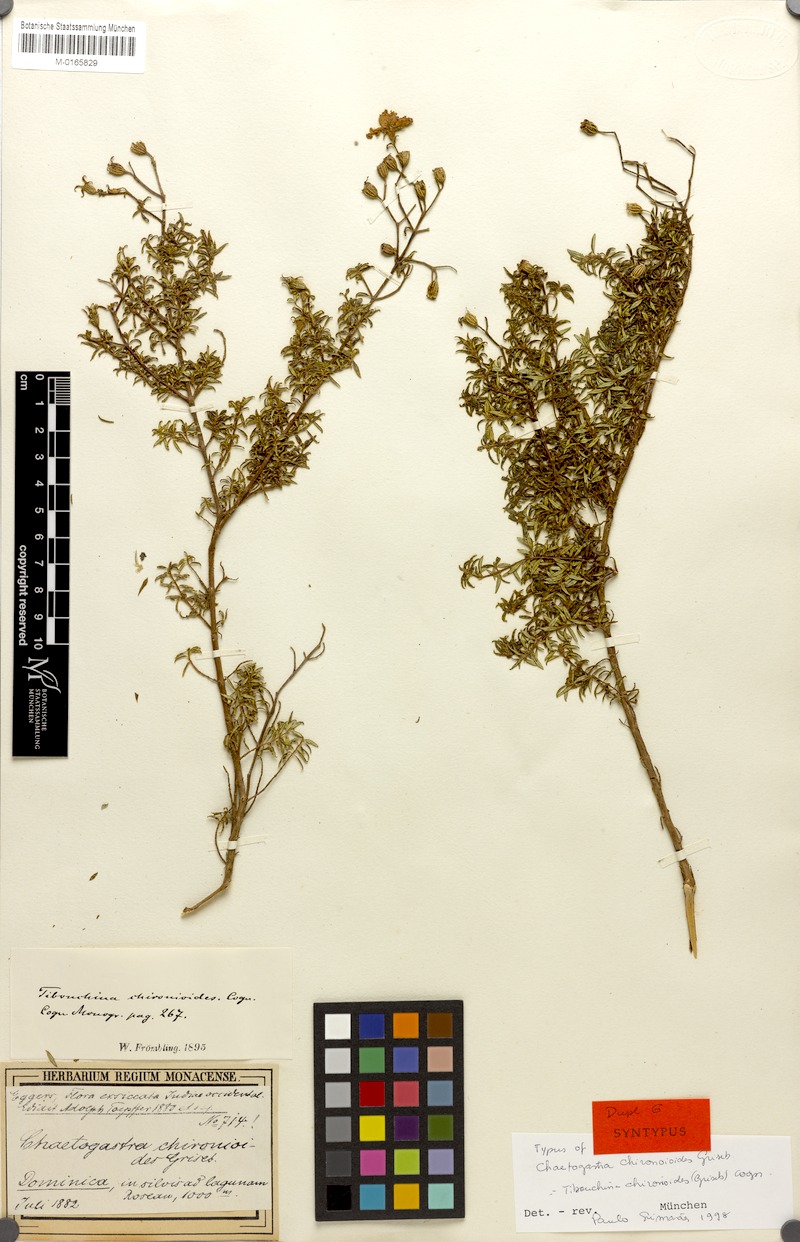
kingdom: Plantae
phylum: Tracheophyta
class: Magnoliopsida
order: Myrtales
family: Melastomataceae
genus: Chaetogastra
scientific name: Chaetogastra chironioides
